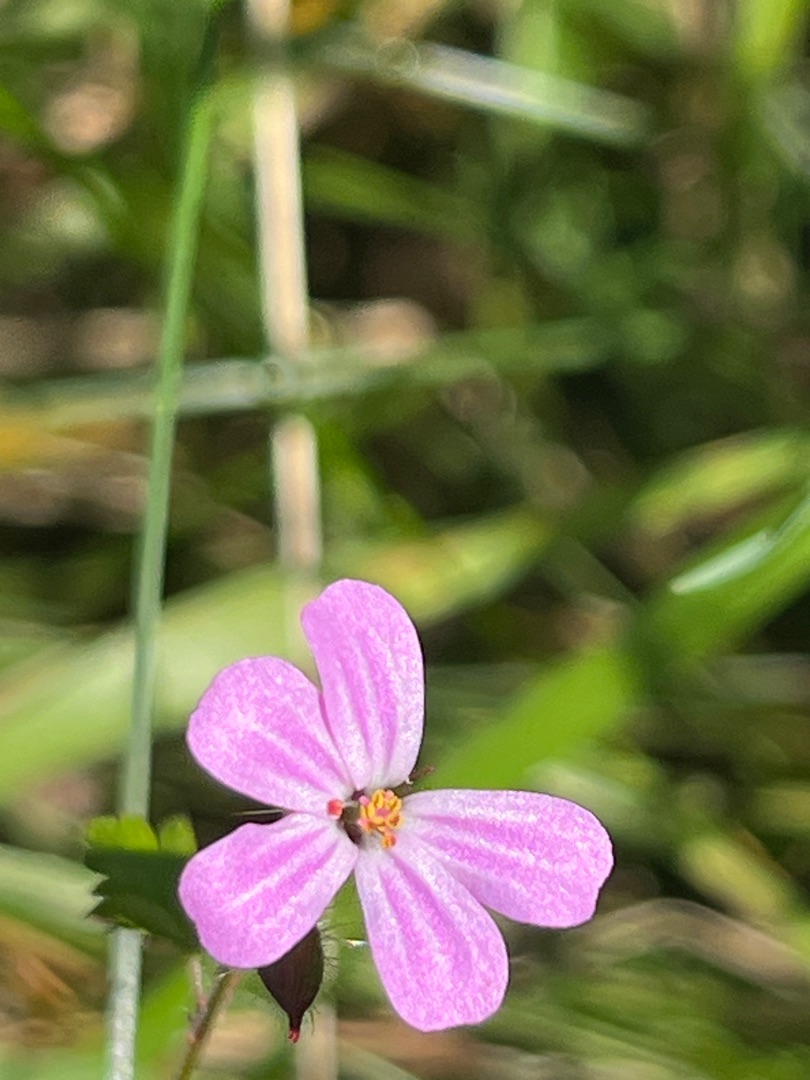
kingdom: Plantae
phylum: Tracheophyta
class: Magnoliopsida
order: Geraniales
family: Geraniaceae
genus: Geranium
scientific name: Geranium robertianum
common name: Stinkende storkenæb
